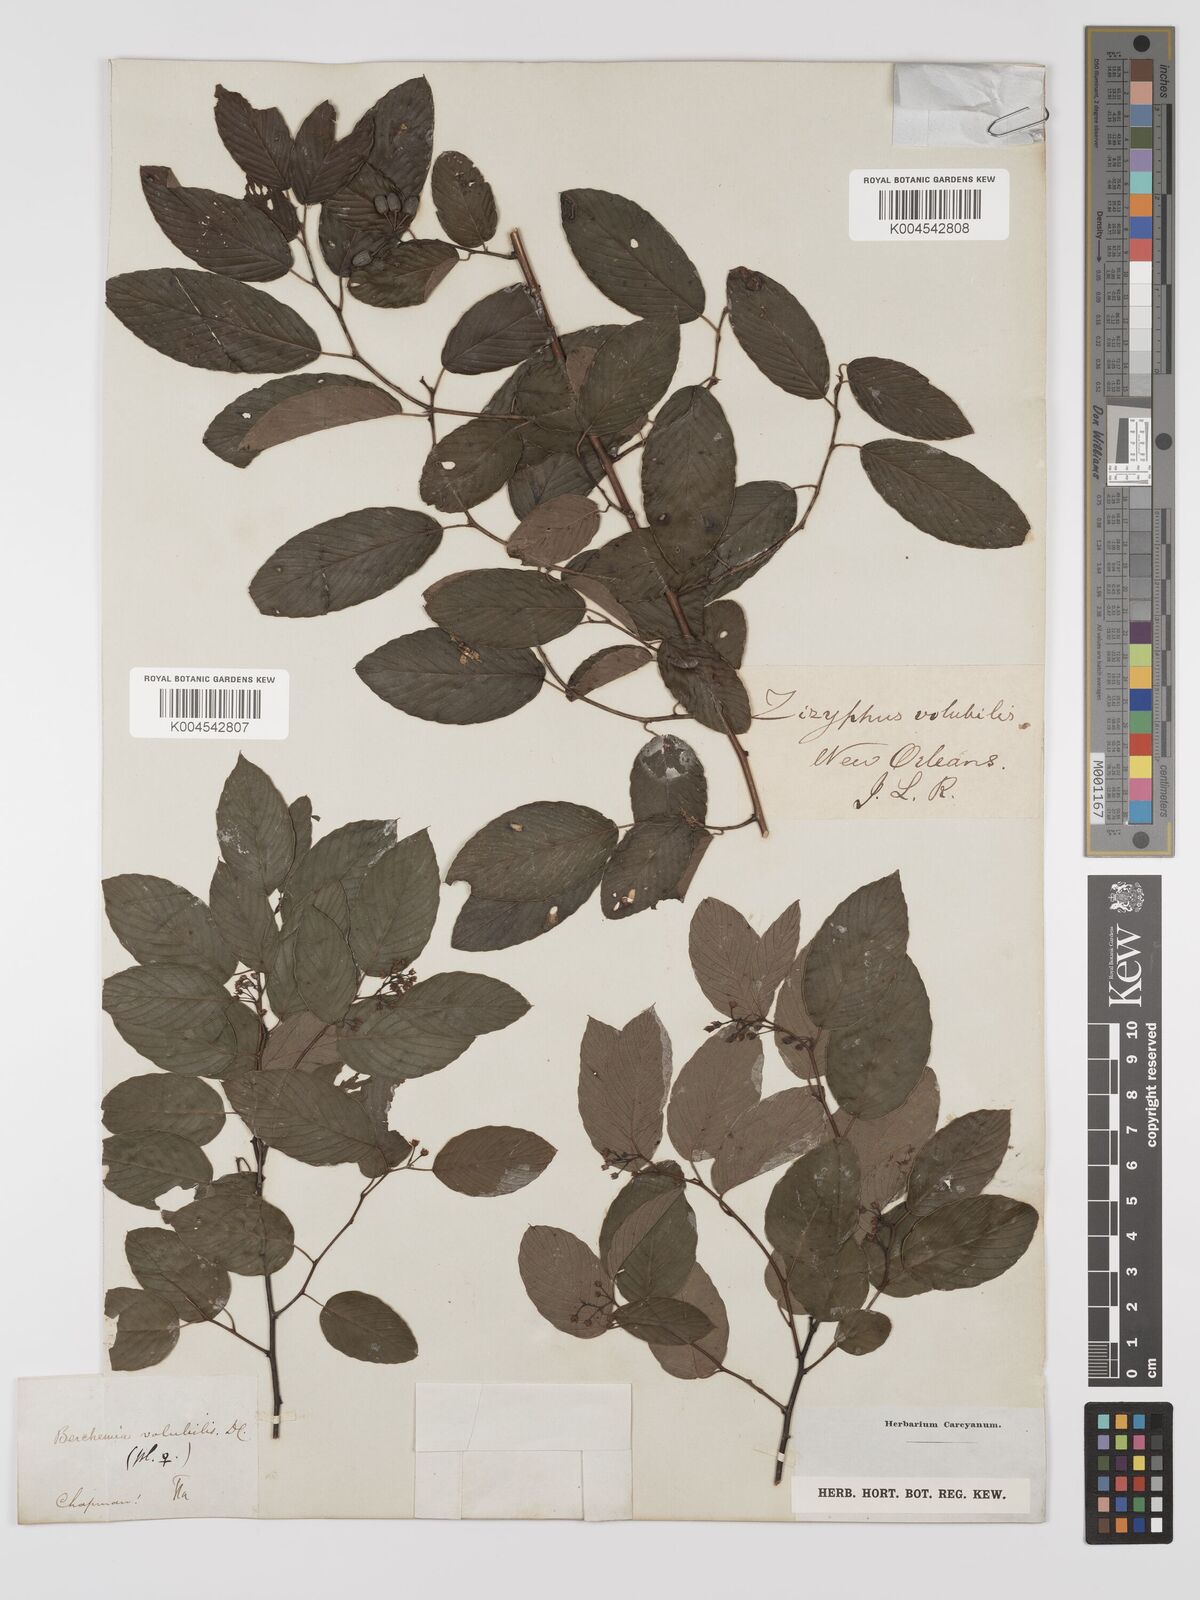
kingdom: Plantae
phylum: Tracheophyta
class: Magnoliopsida
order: Rosales
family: Rhamnaceae
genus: Berchemia
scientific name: Berchemia scandens
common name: Supplejack
